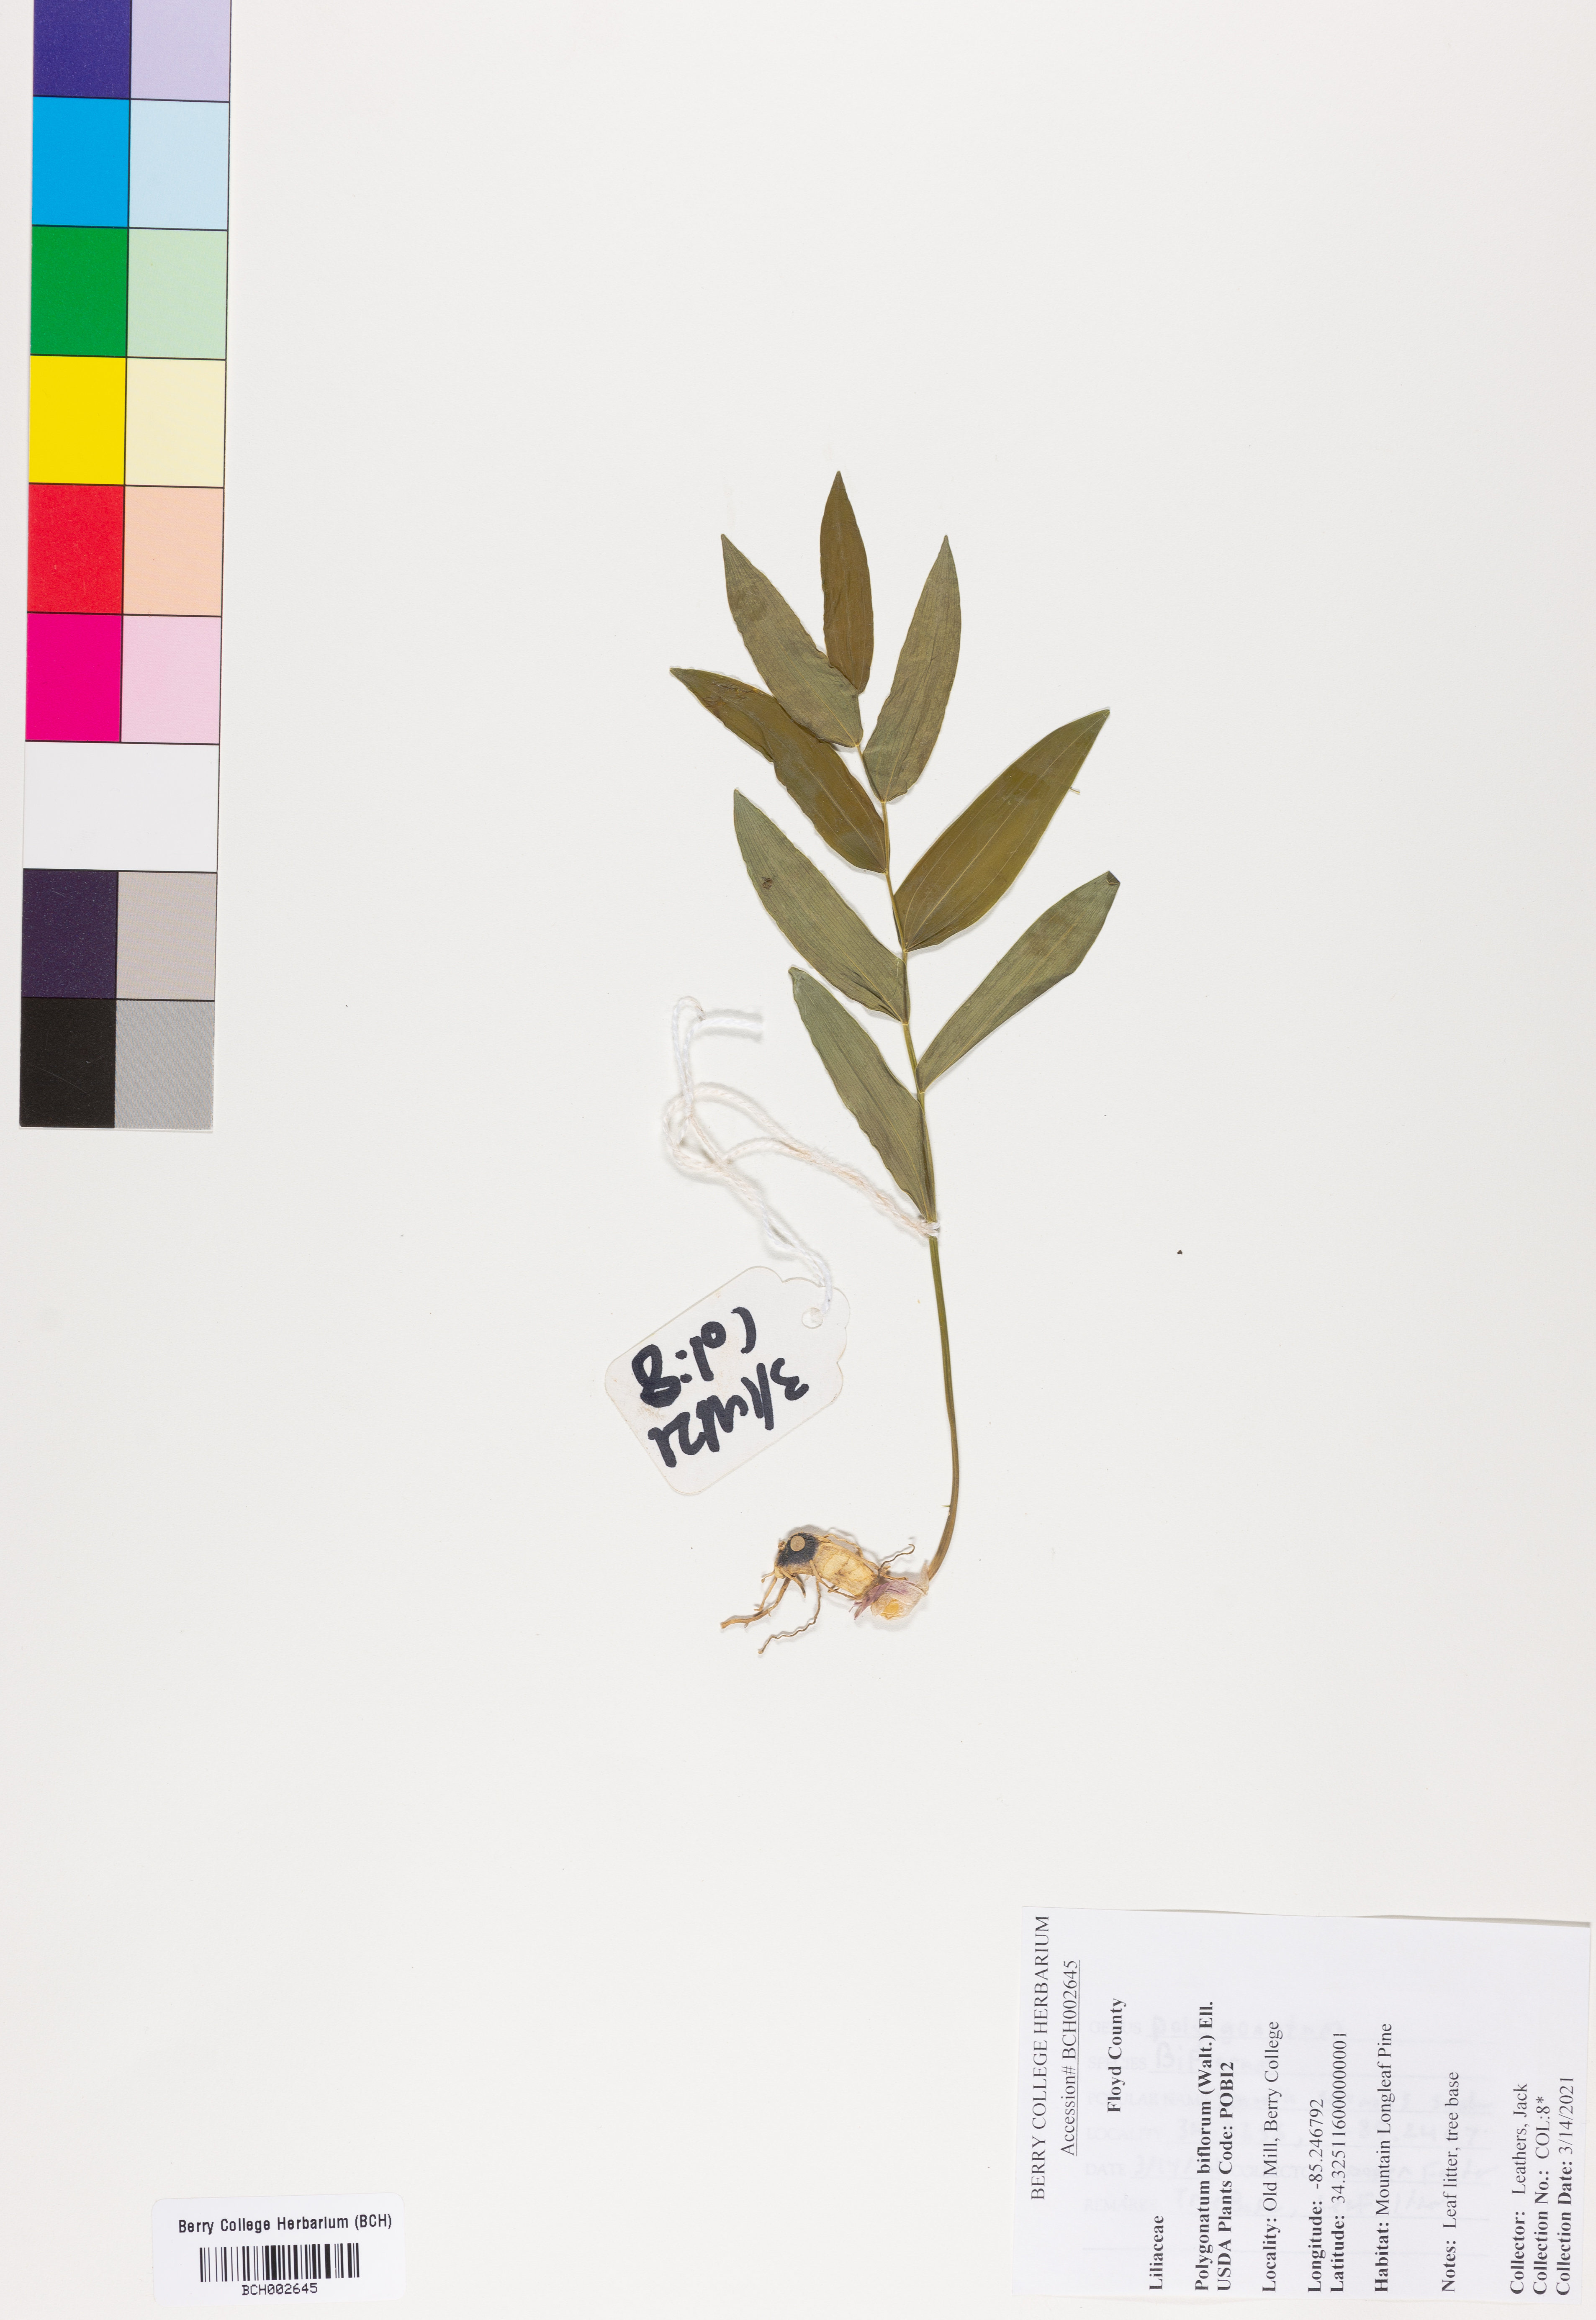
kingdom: Plantae
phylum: Tracheophyta
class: Liliopsida
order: Asparagales
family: Asparagaceae
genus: Polygonatum
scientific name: Polygonatum biflorum
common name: American solomon's-seal
